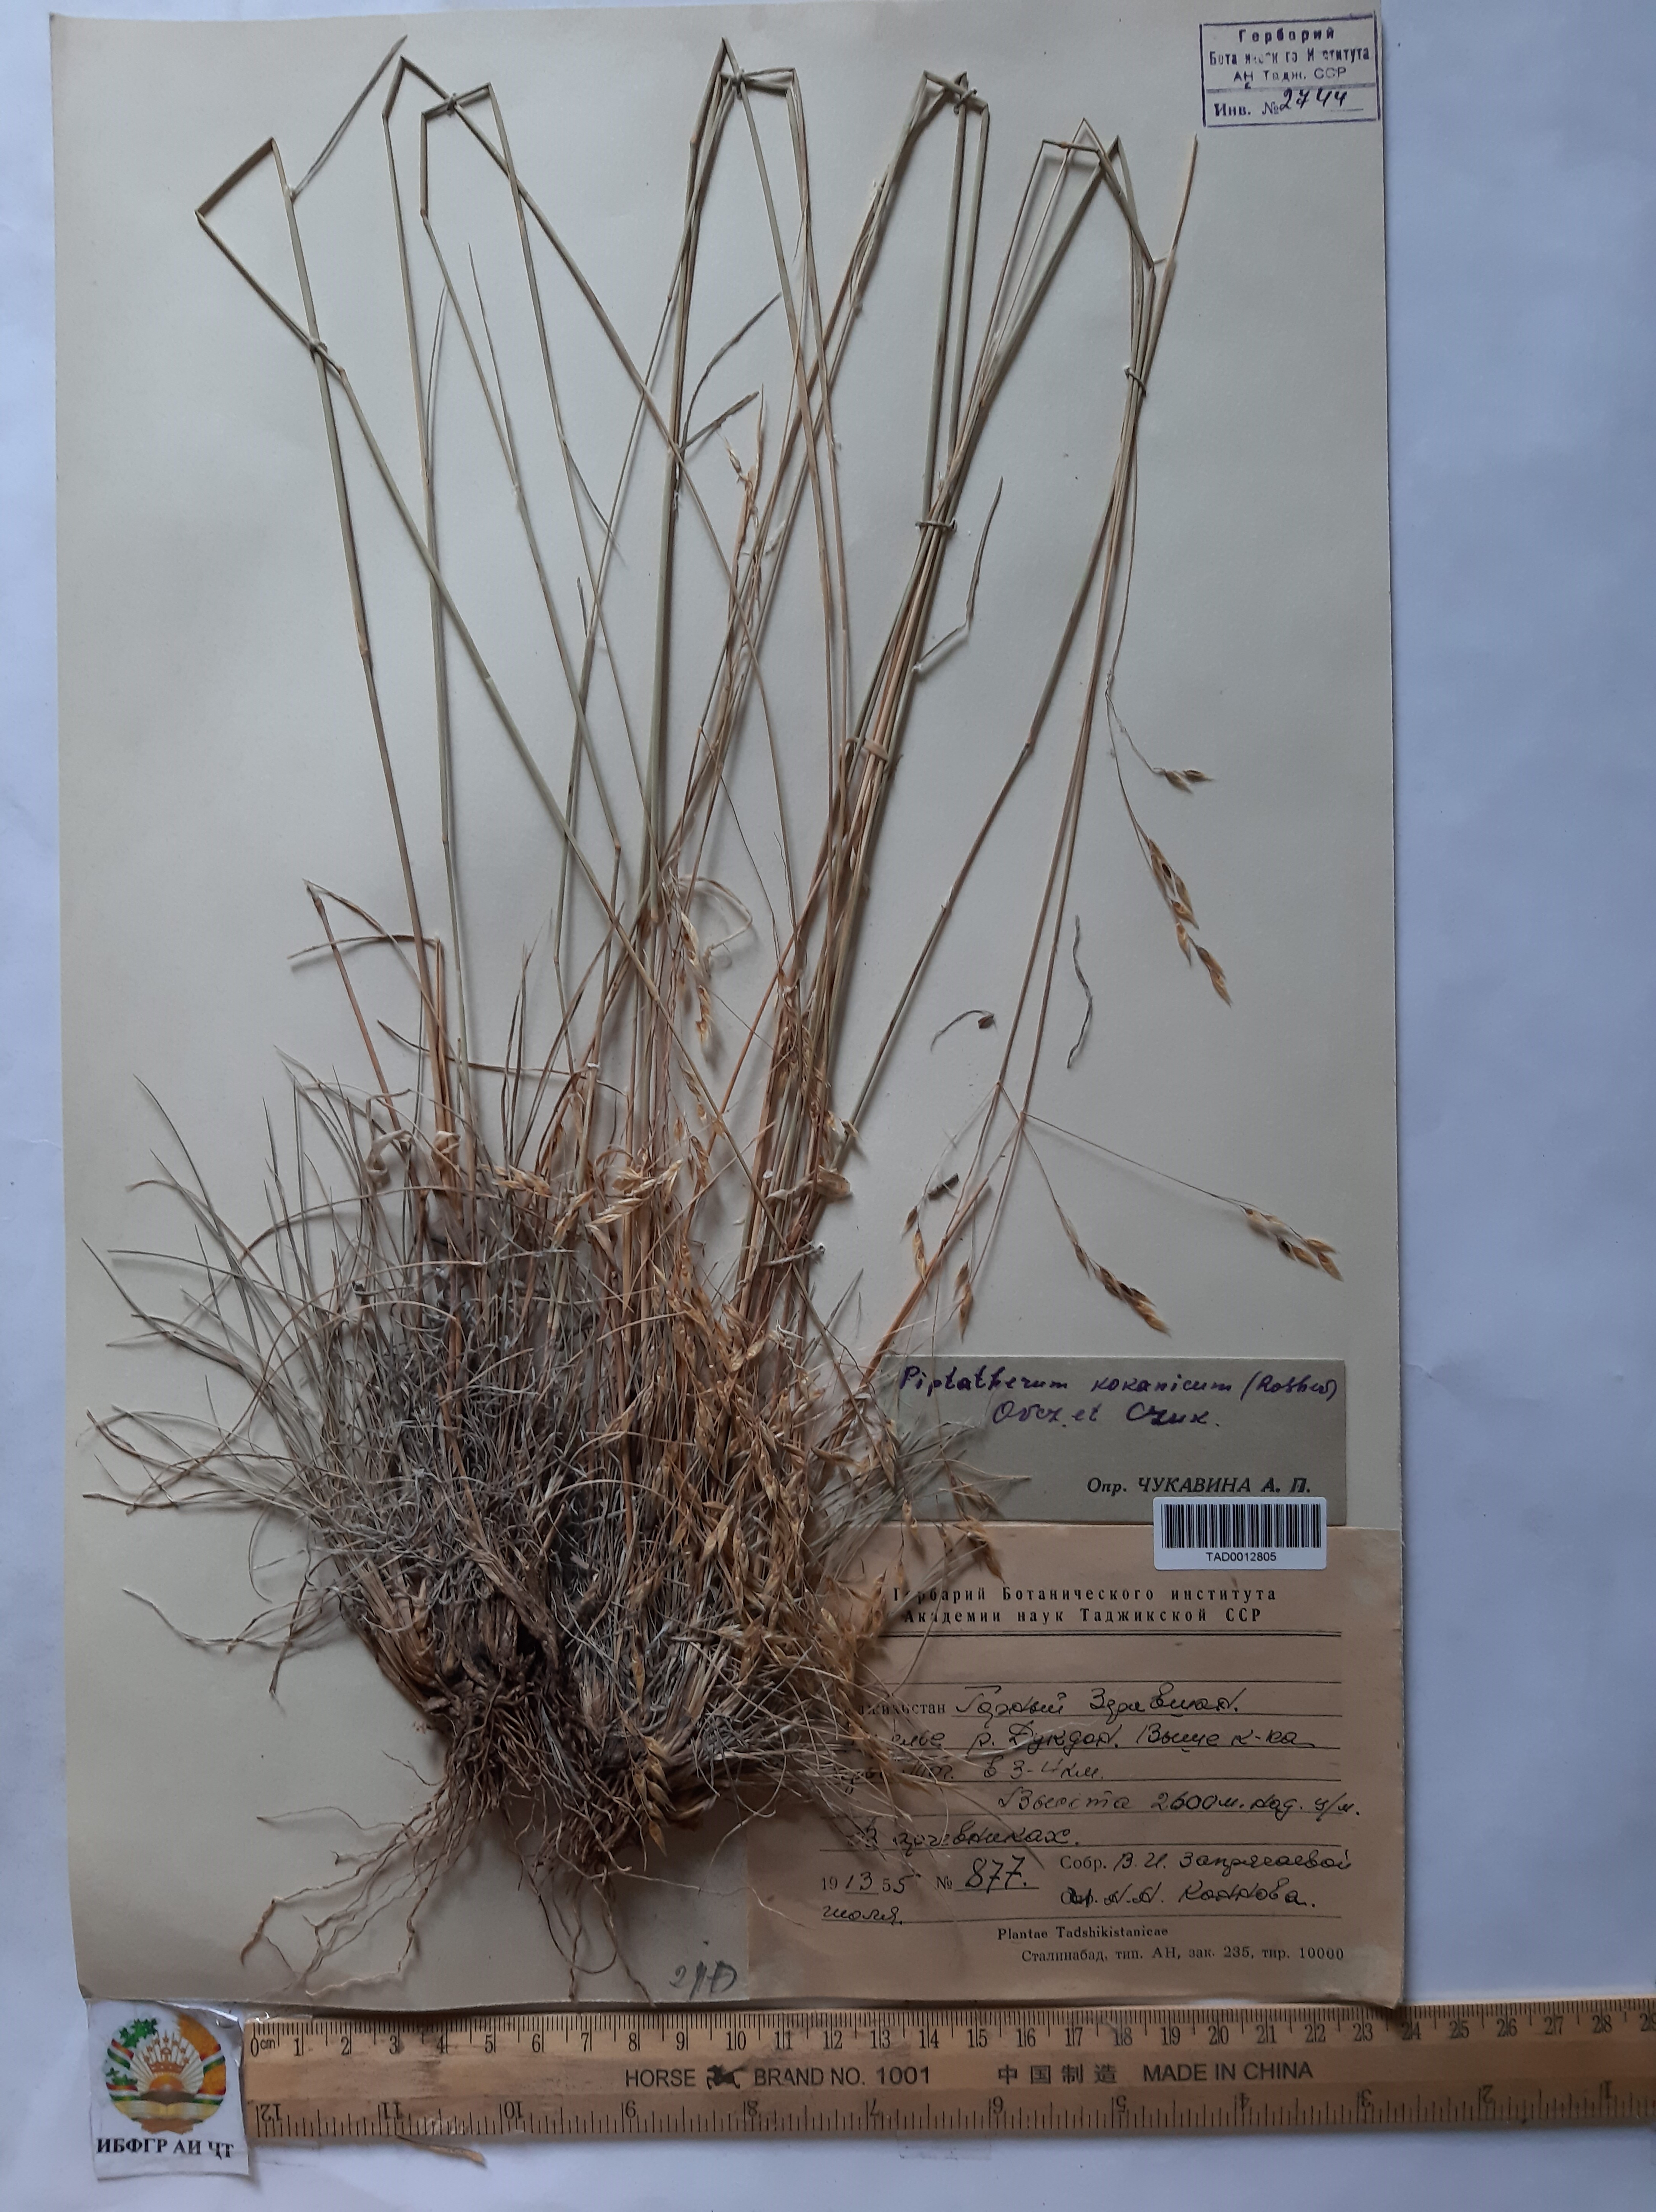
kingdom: Plantae
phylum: Tracheophyta
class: Liliopsida
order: Poales
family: Poaceae
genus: Melica
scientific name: Melica cupani
